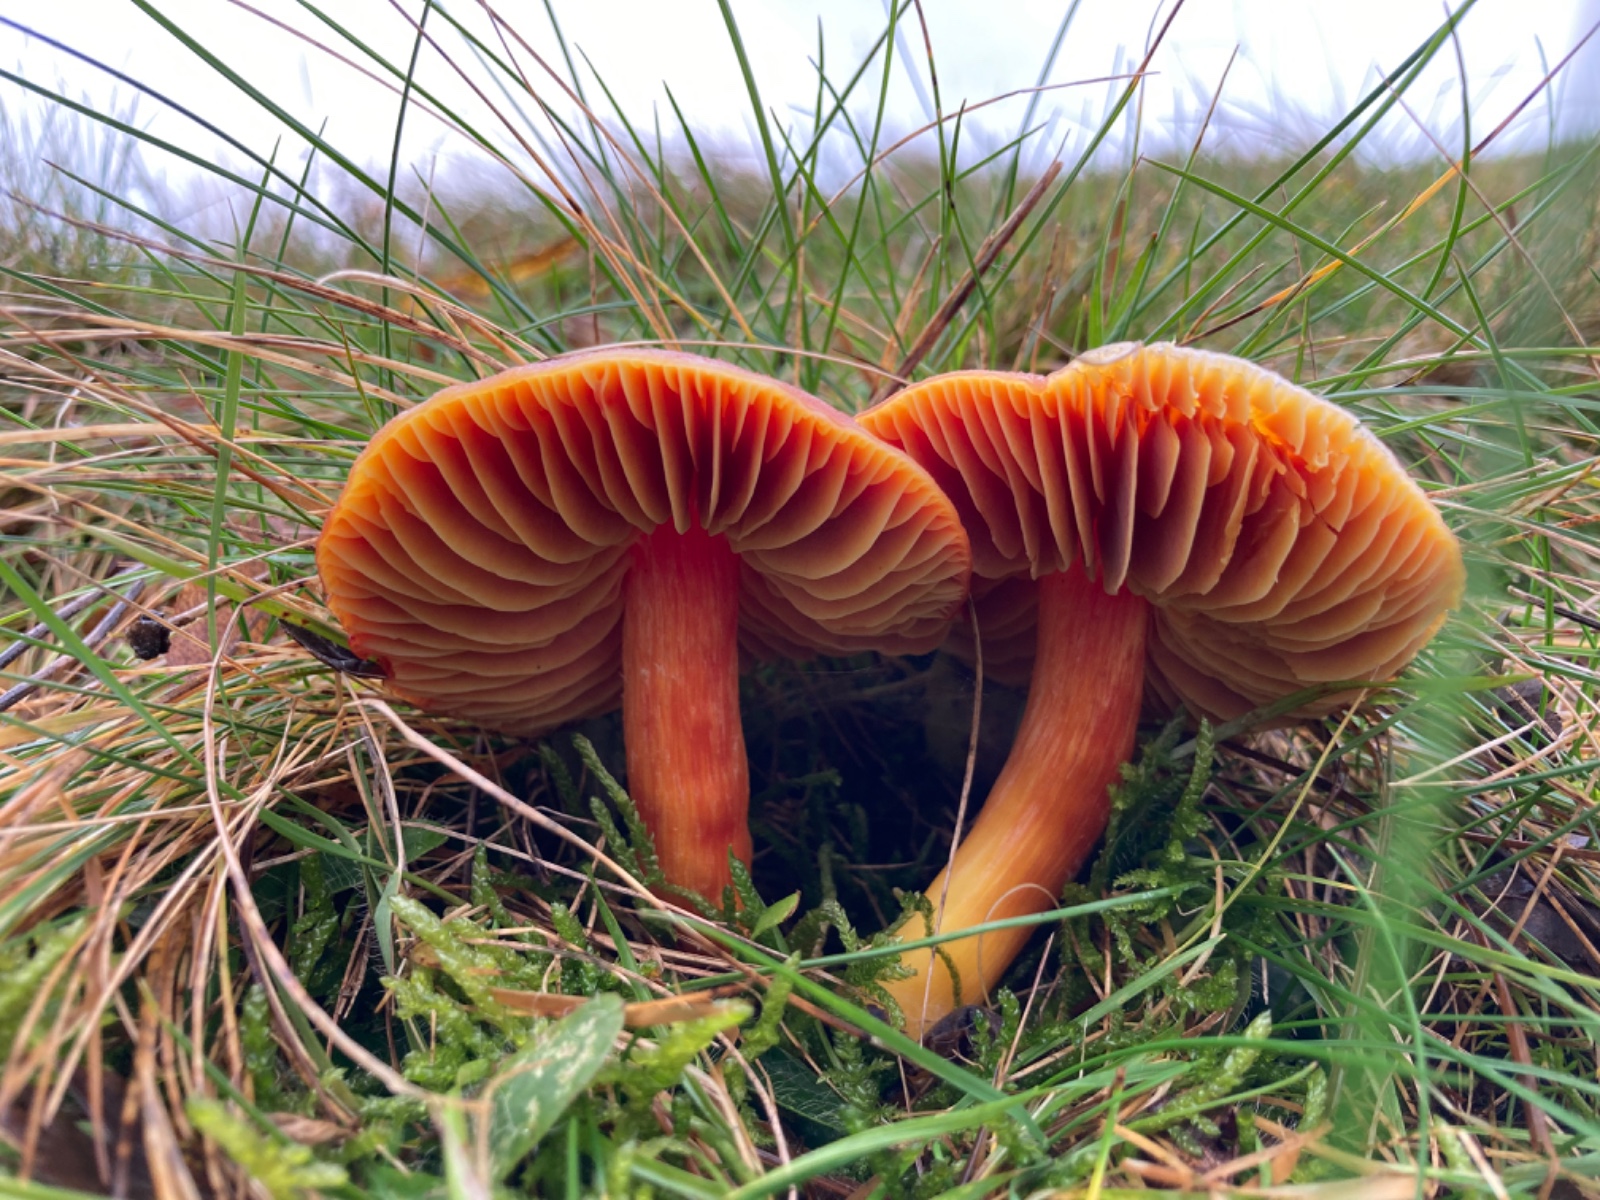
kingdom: Fungi
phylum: Basidiomycota
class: Agaricomycetes
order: Agaricales
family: Hygrophoraceae
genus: Hygrocybe
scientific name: Hygrocybe punicea
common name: skarlagen-vokshat
